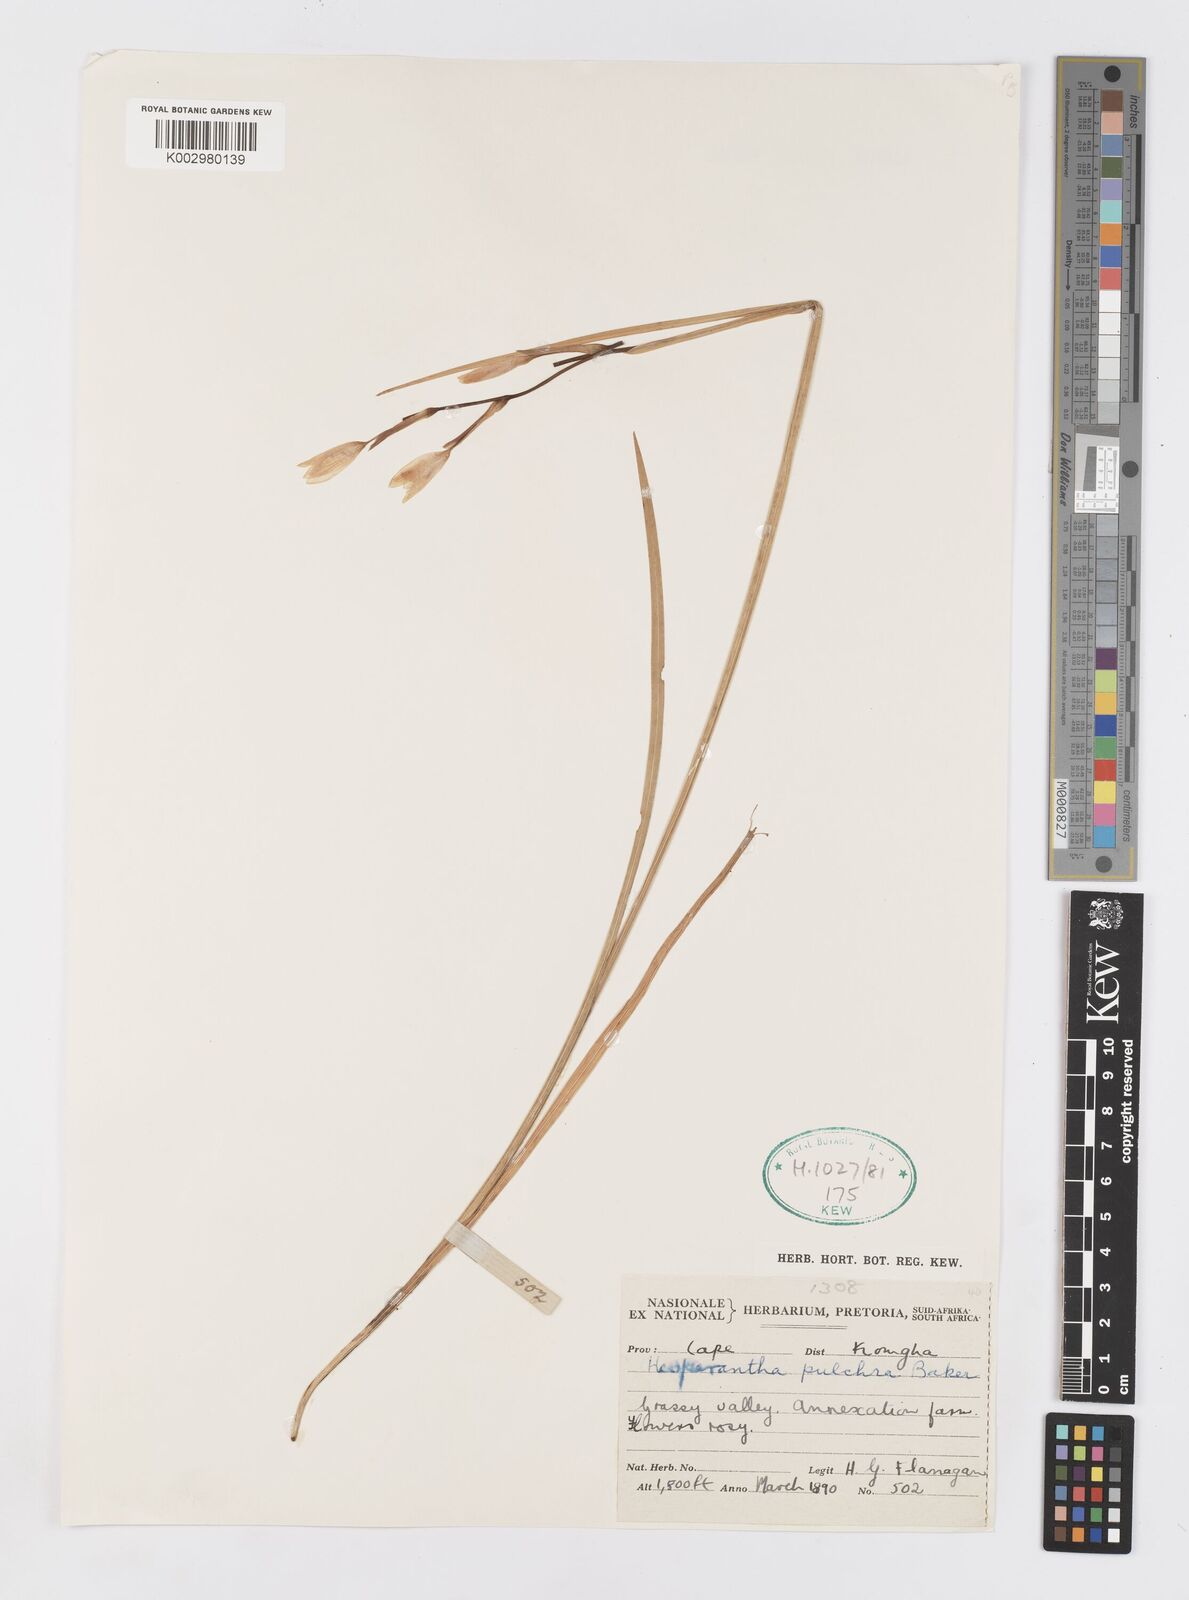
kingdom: Plantae
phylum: Tracheophyta
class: Liliopsida
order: Asparagales
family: Iridaceae
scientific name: Iridaceae
